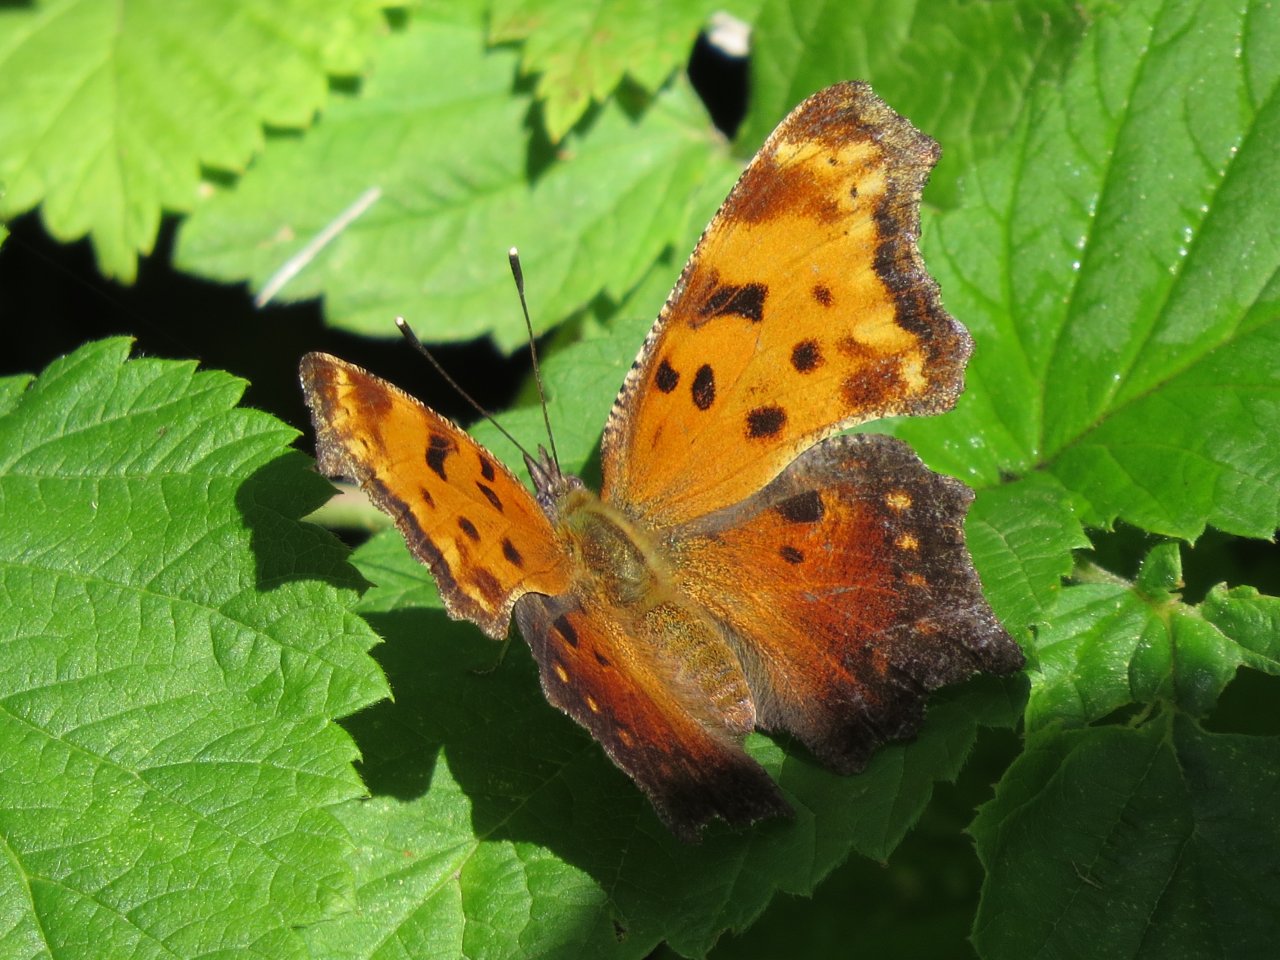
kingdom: Animalia
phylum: Arthropoda
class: Insecta
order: Lepidoptera
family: Nymphalidae
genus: Polygonia
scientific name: Polygonia progne
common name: Gray Comma
